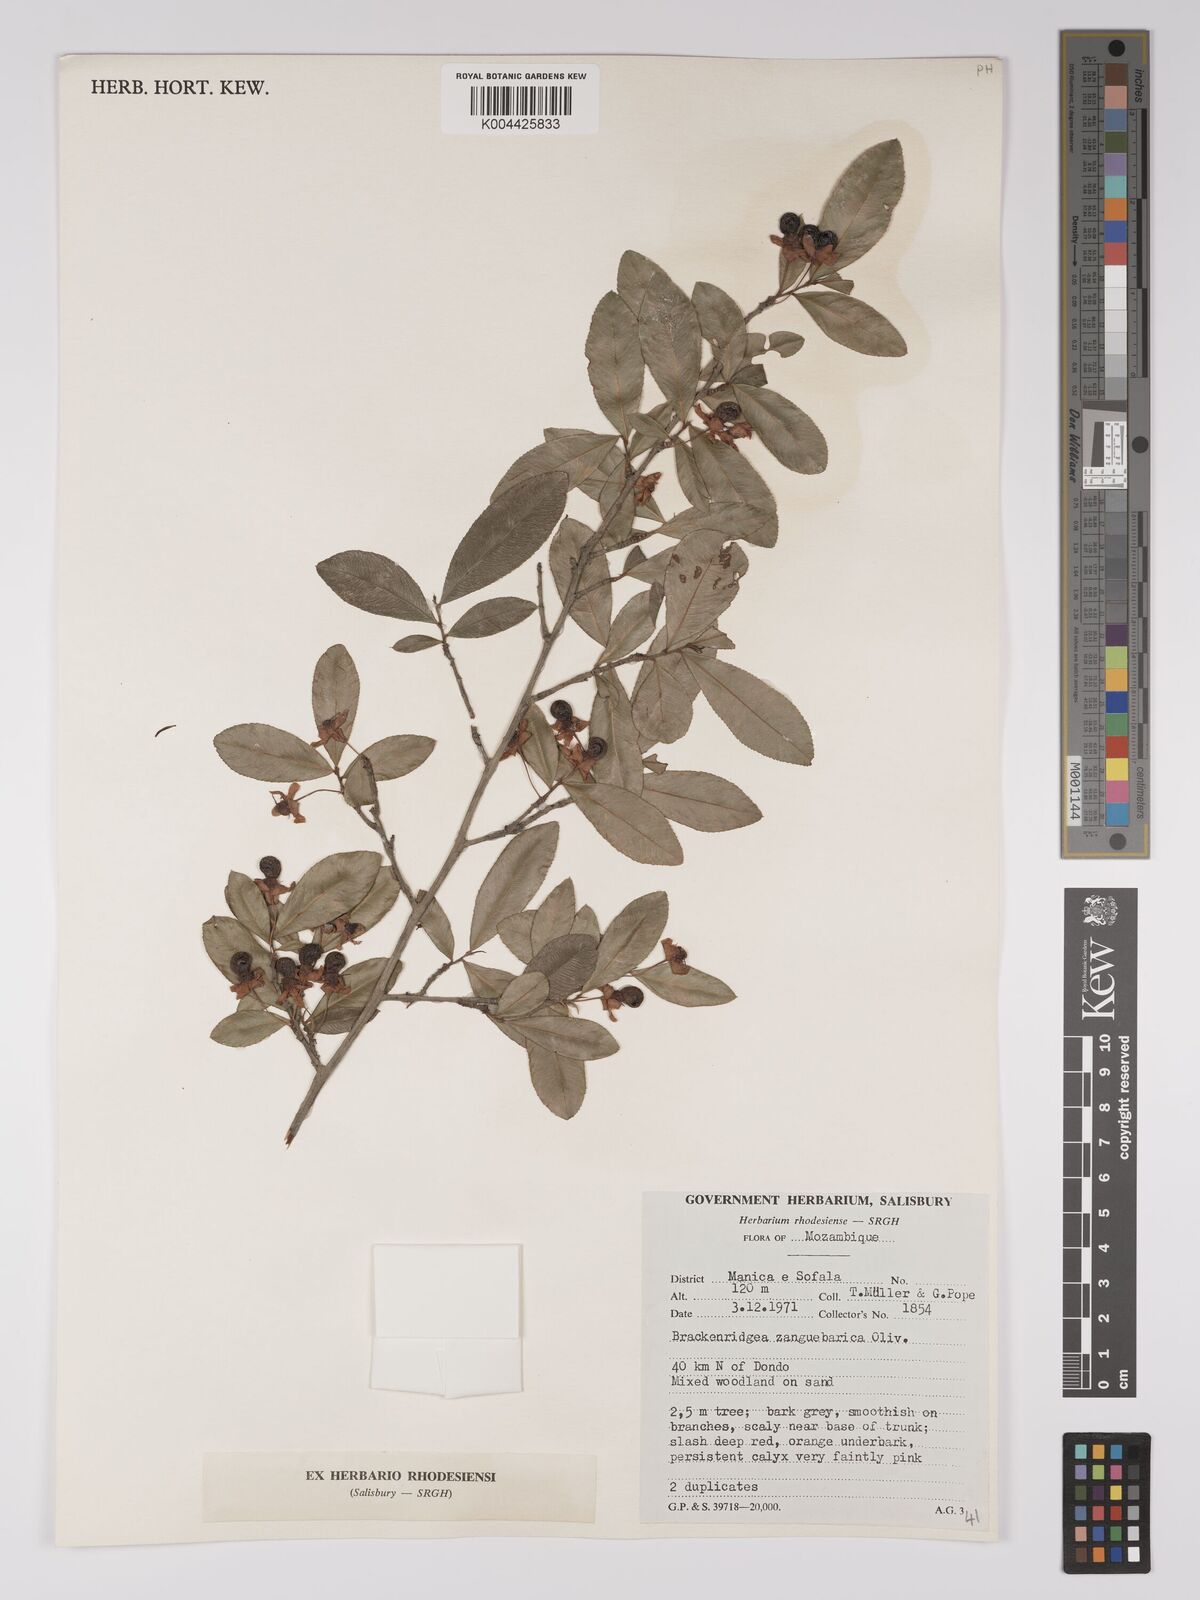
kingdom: Plantae
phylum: Tracheophyta
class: Magnoliopsida
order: Malpighiales
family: Ochnaceae
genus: Brackenridgea
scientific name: Brackenridgea zanguebarica
